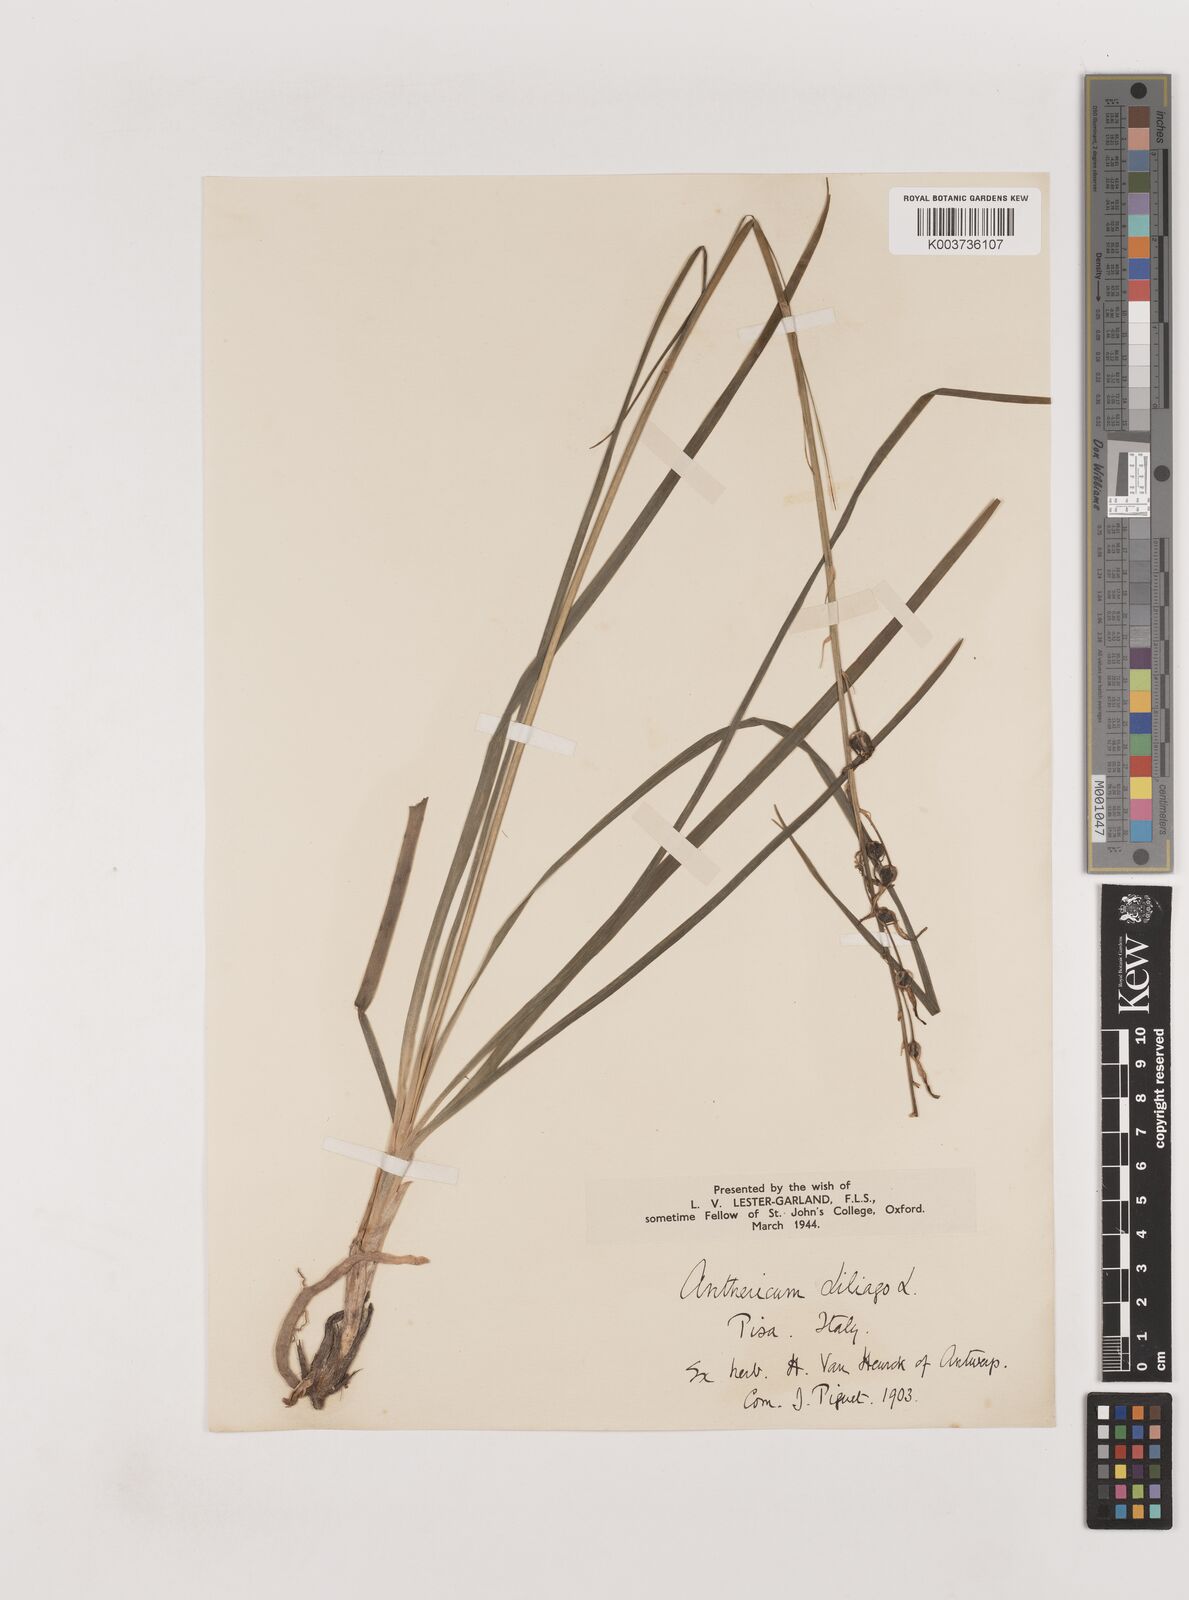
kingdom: Plantae
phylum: Tracheophyta
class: Liliopsida
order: Asparagales
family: Asparagaceae
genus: Anthericum
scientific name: Anthericum liliago
